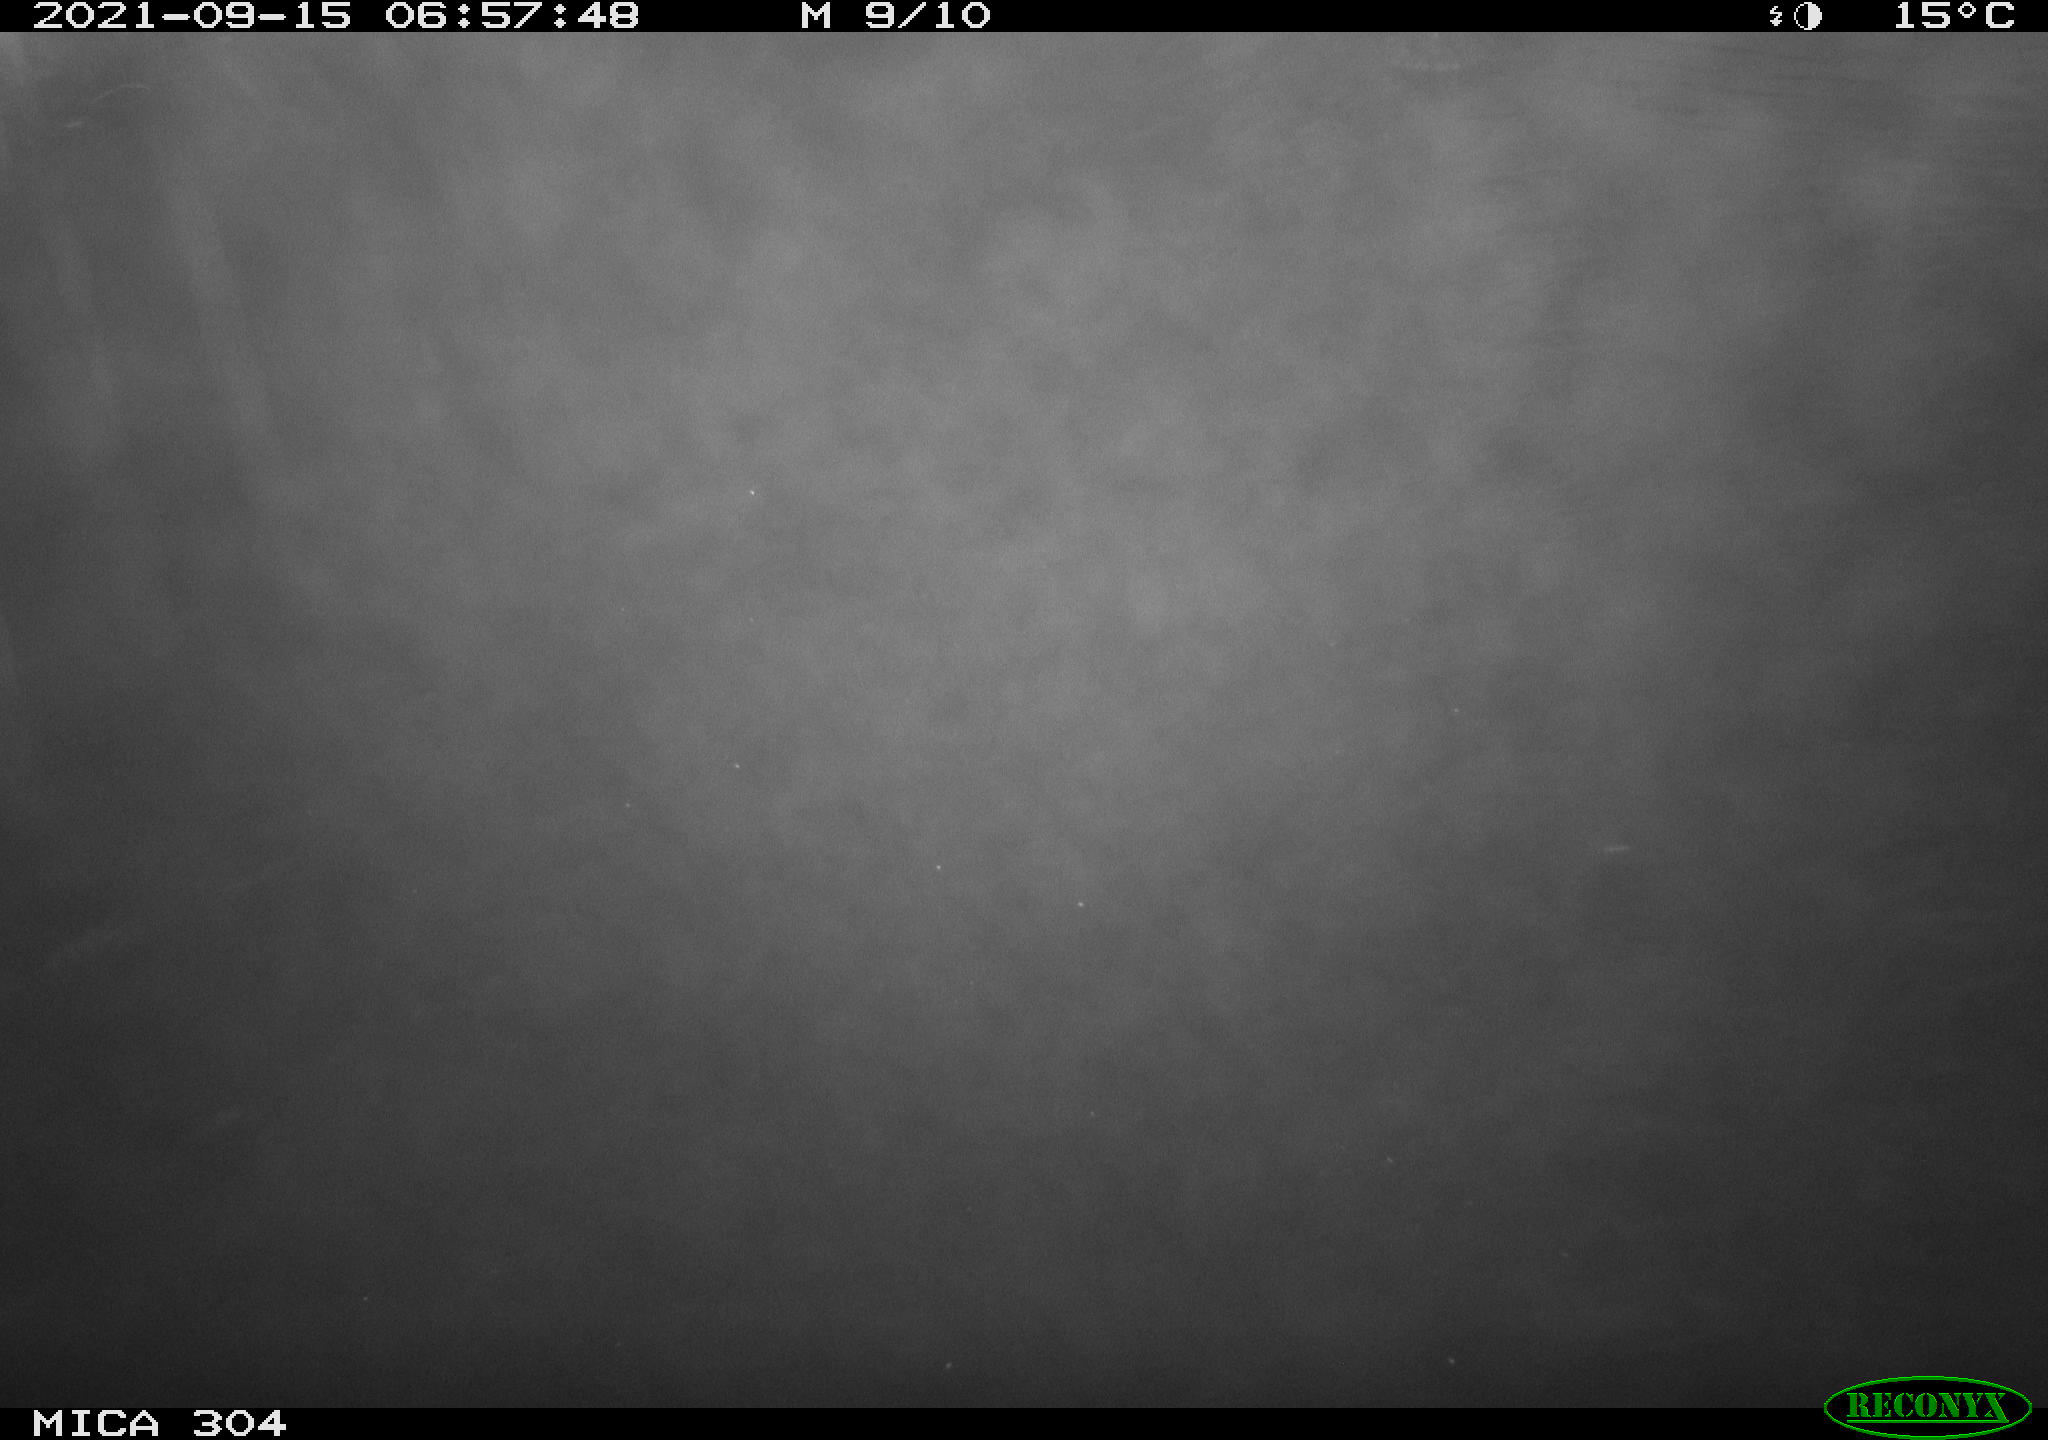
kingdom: Animalia
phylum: Chordata
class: Aves
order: Anseriformes
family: Anatidae
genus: Anas
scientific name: Anas platyrhynchos
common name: Mallard
